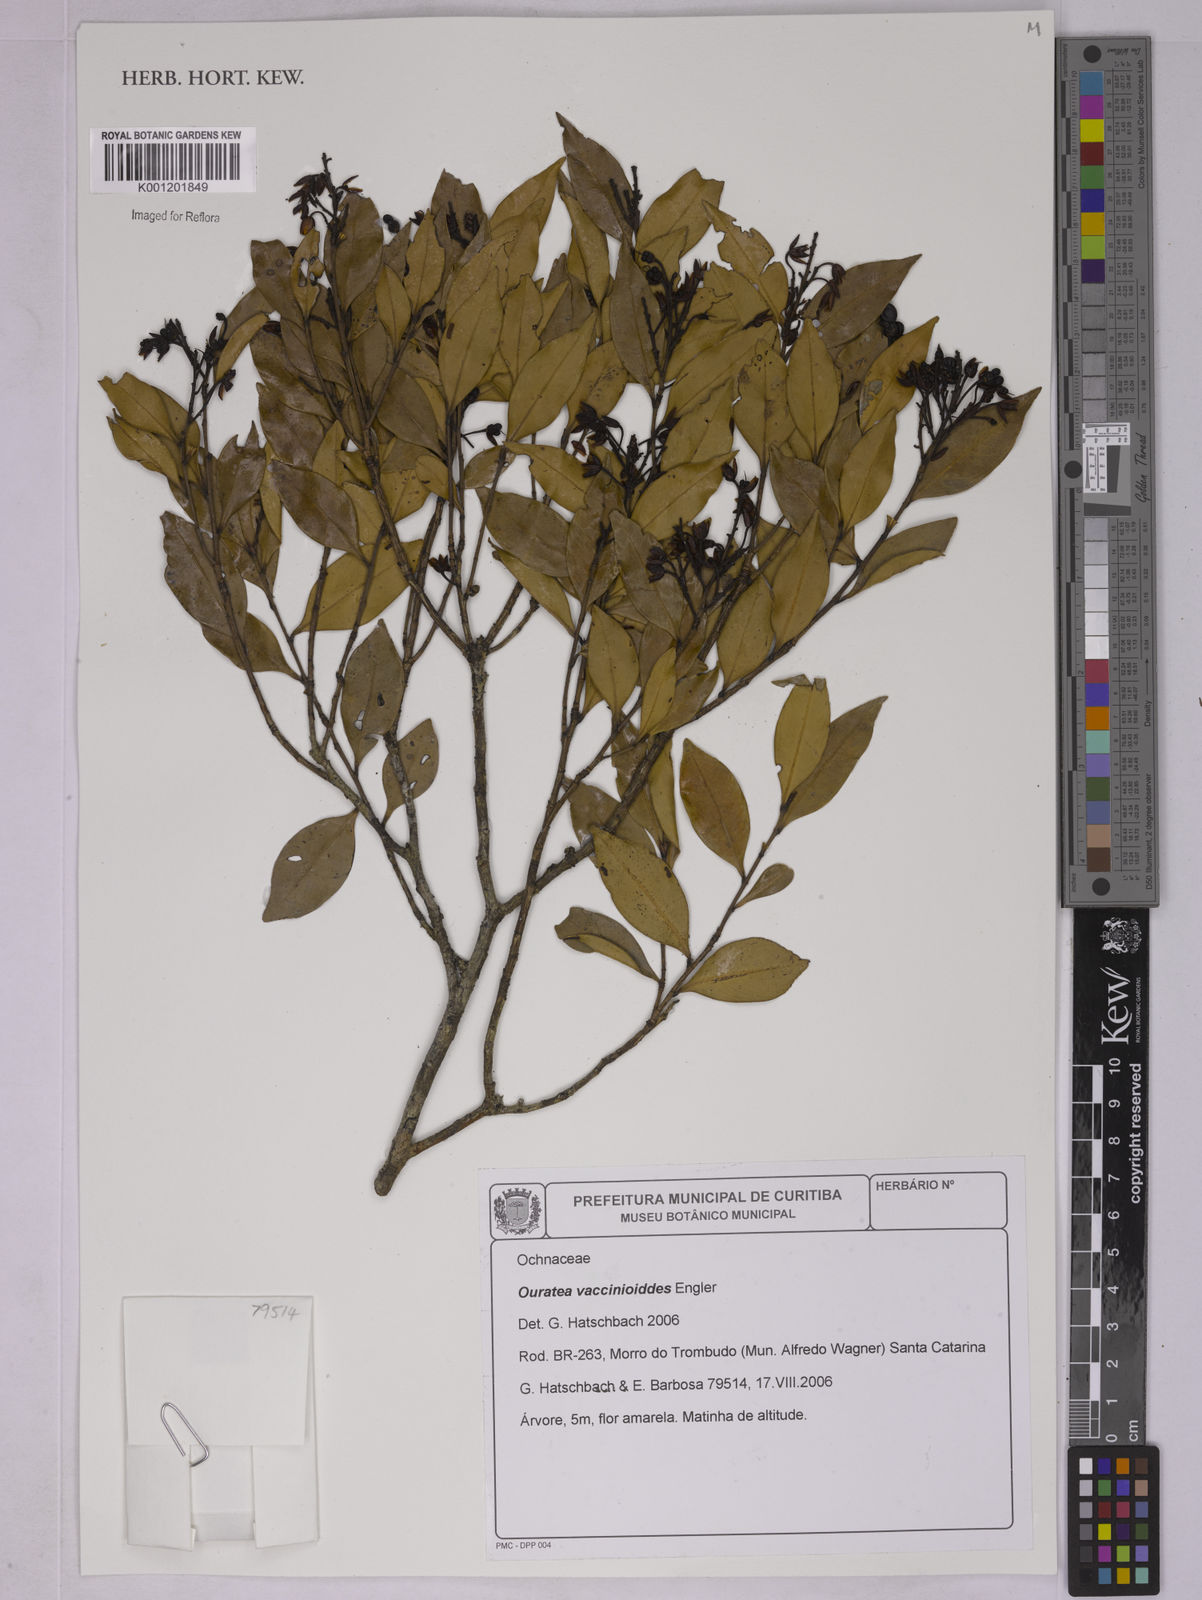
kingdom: Plantae
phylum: Tracheophyta
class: Magnoliopsida
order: Malpighiales
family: Ochnaceae
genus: Ouratea
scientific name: Ouratea vaccinioides
